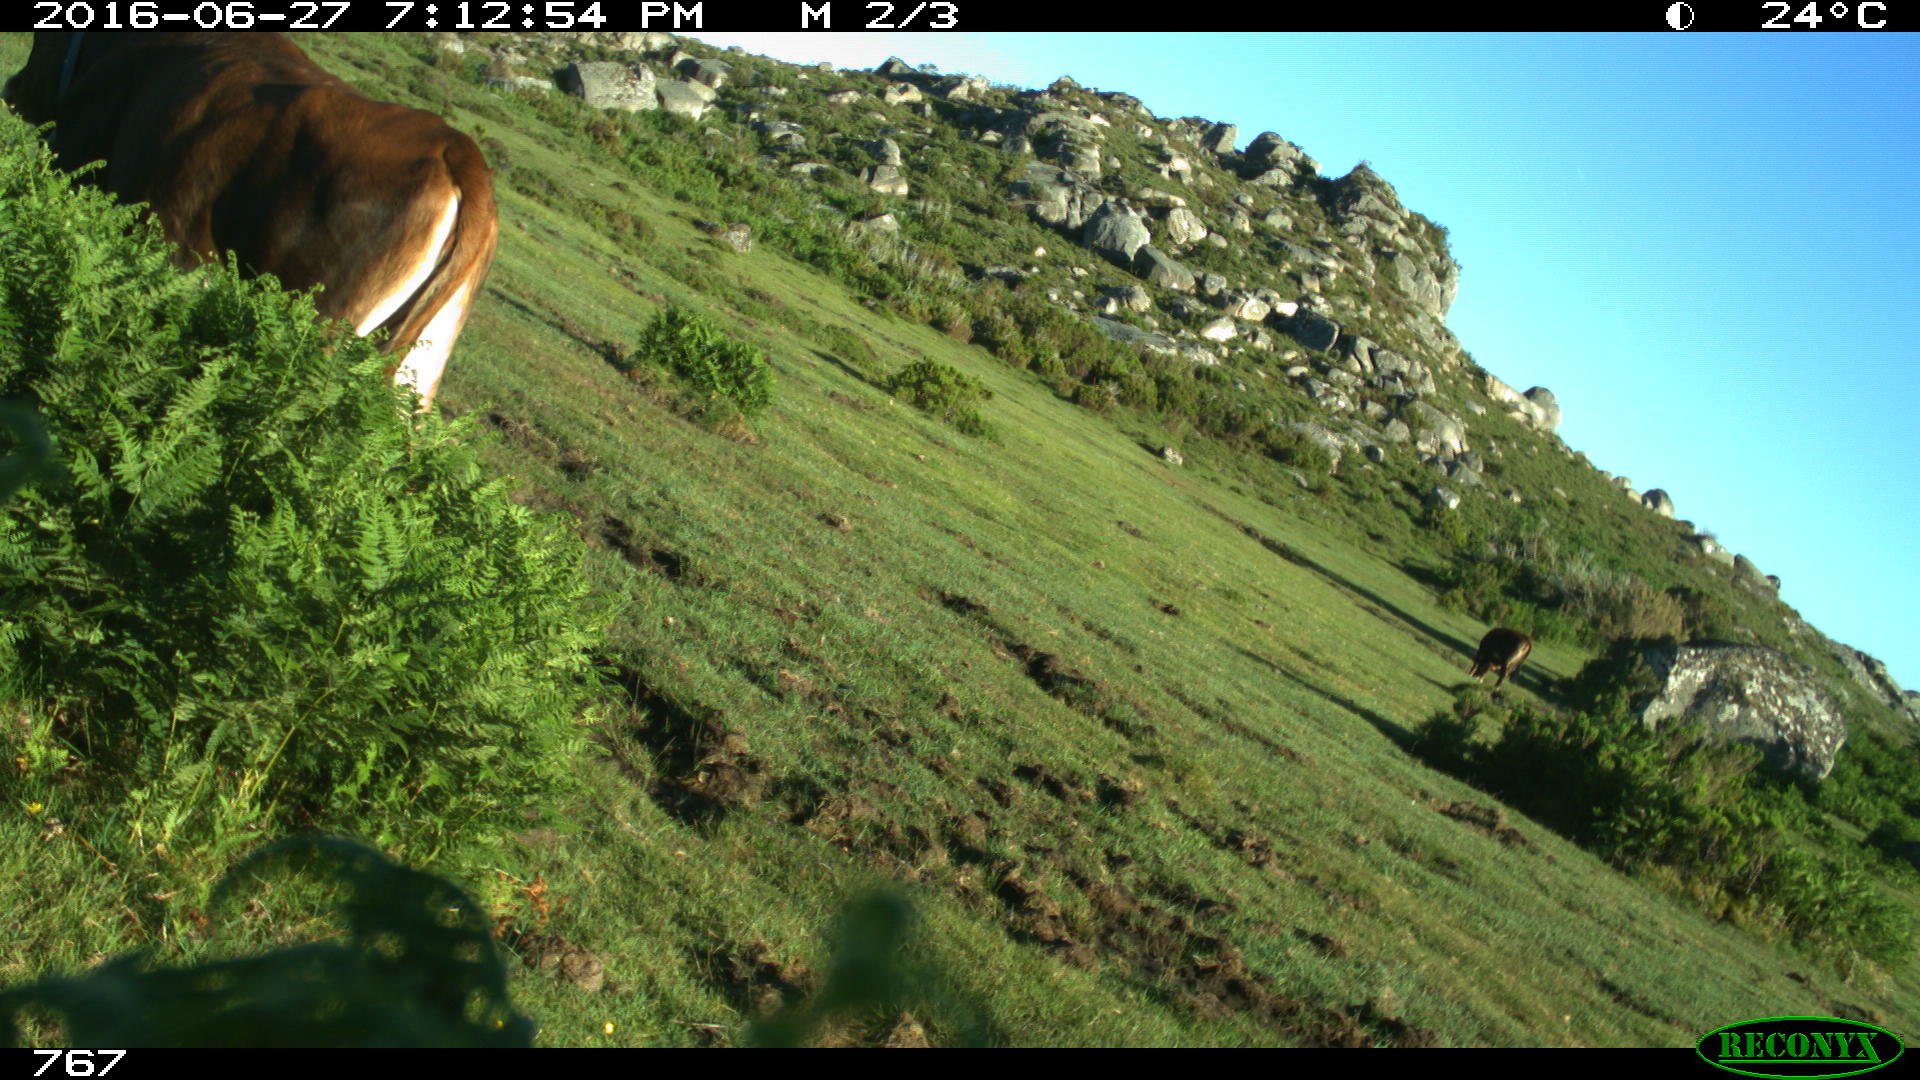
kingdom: Animalia
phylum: Chordata
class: Mammalia
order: Artiodactyla
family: Bovidae
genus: Bos
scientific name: Bos taurus
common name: Domesticated cattle
